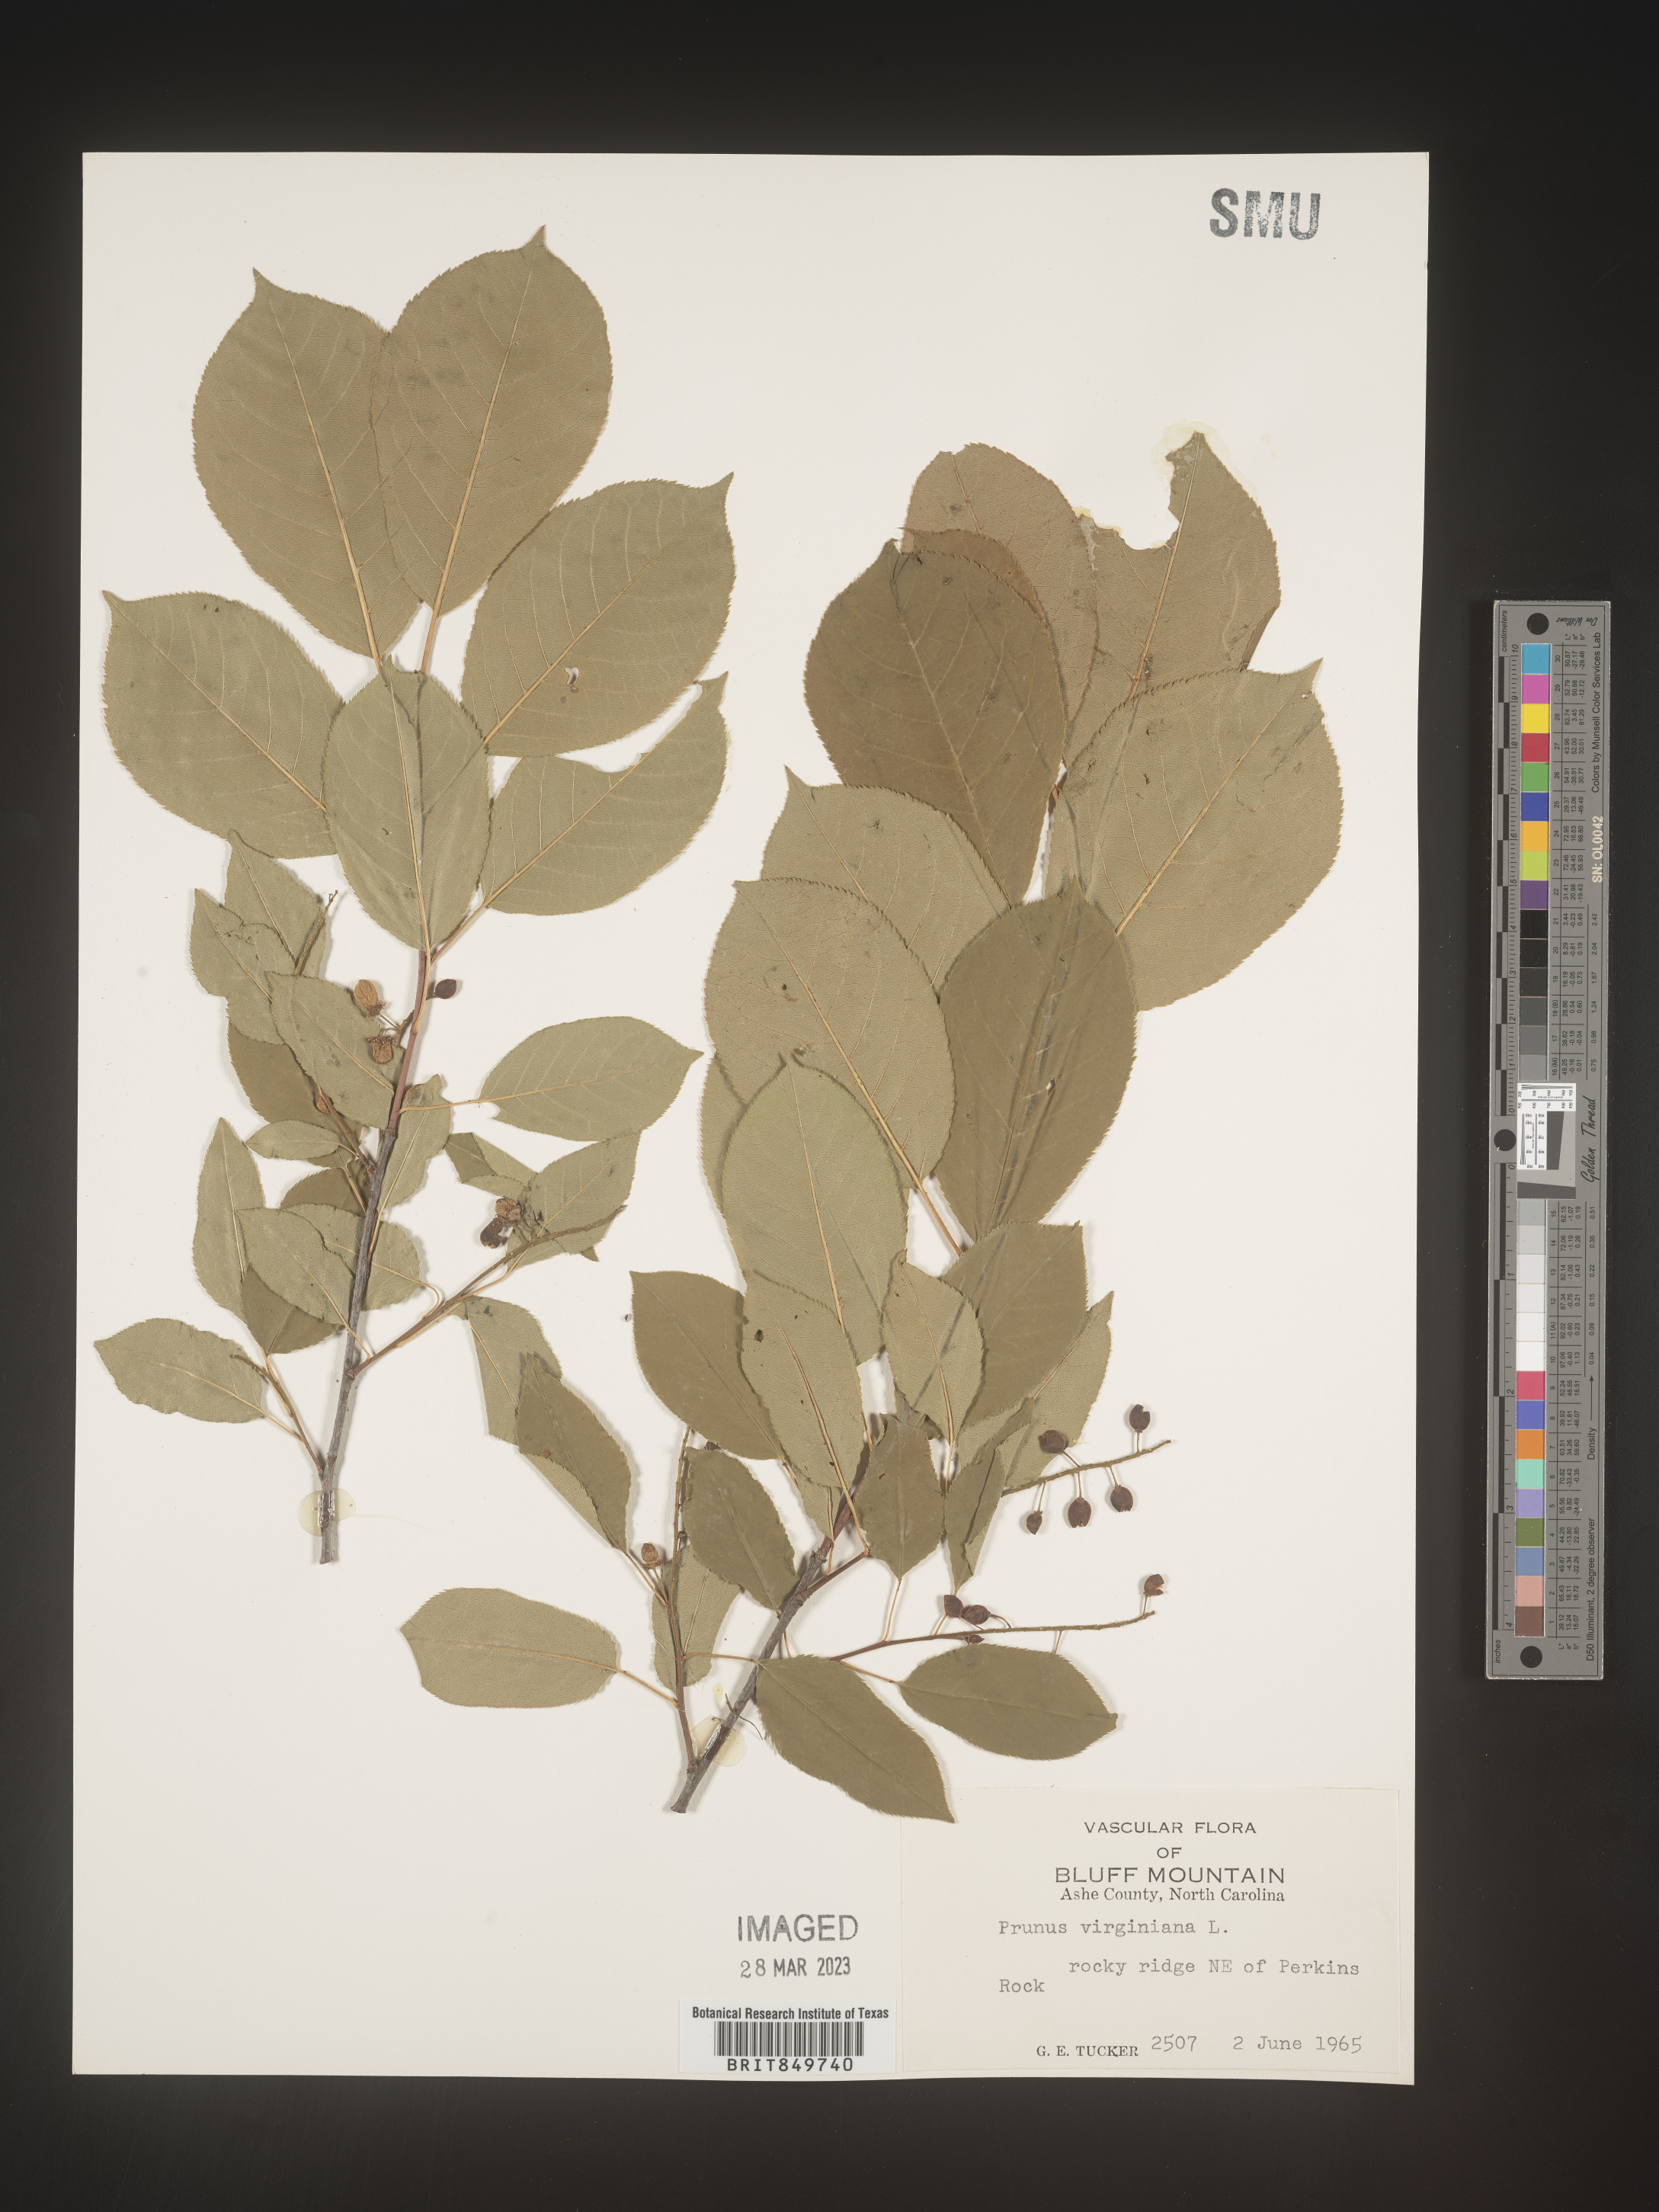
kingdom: Plantae
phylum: Tracheophyta
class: Magnoliopsida
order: Rosales
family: Rosaceae
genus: Prunus
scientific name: Prunus virginiana
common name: Chokecherry
